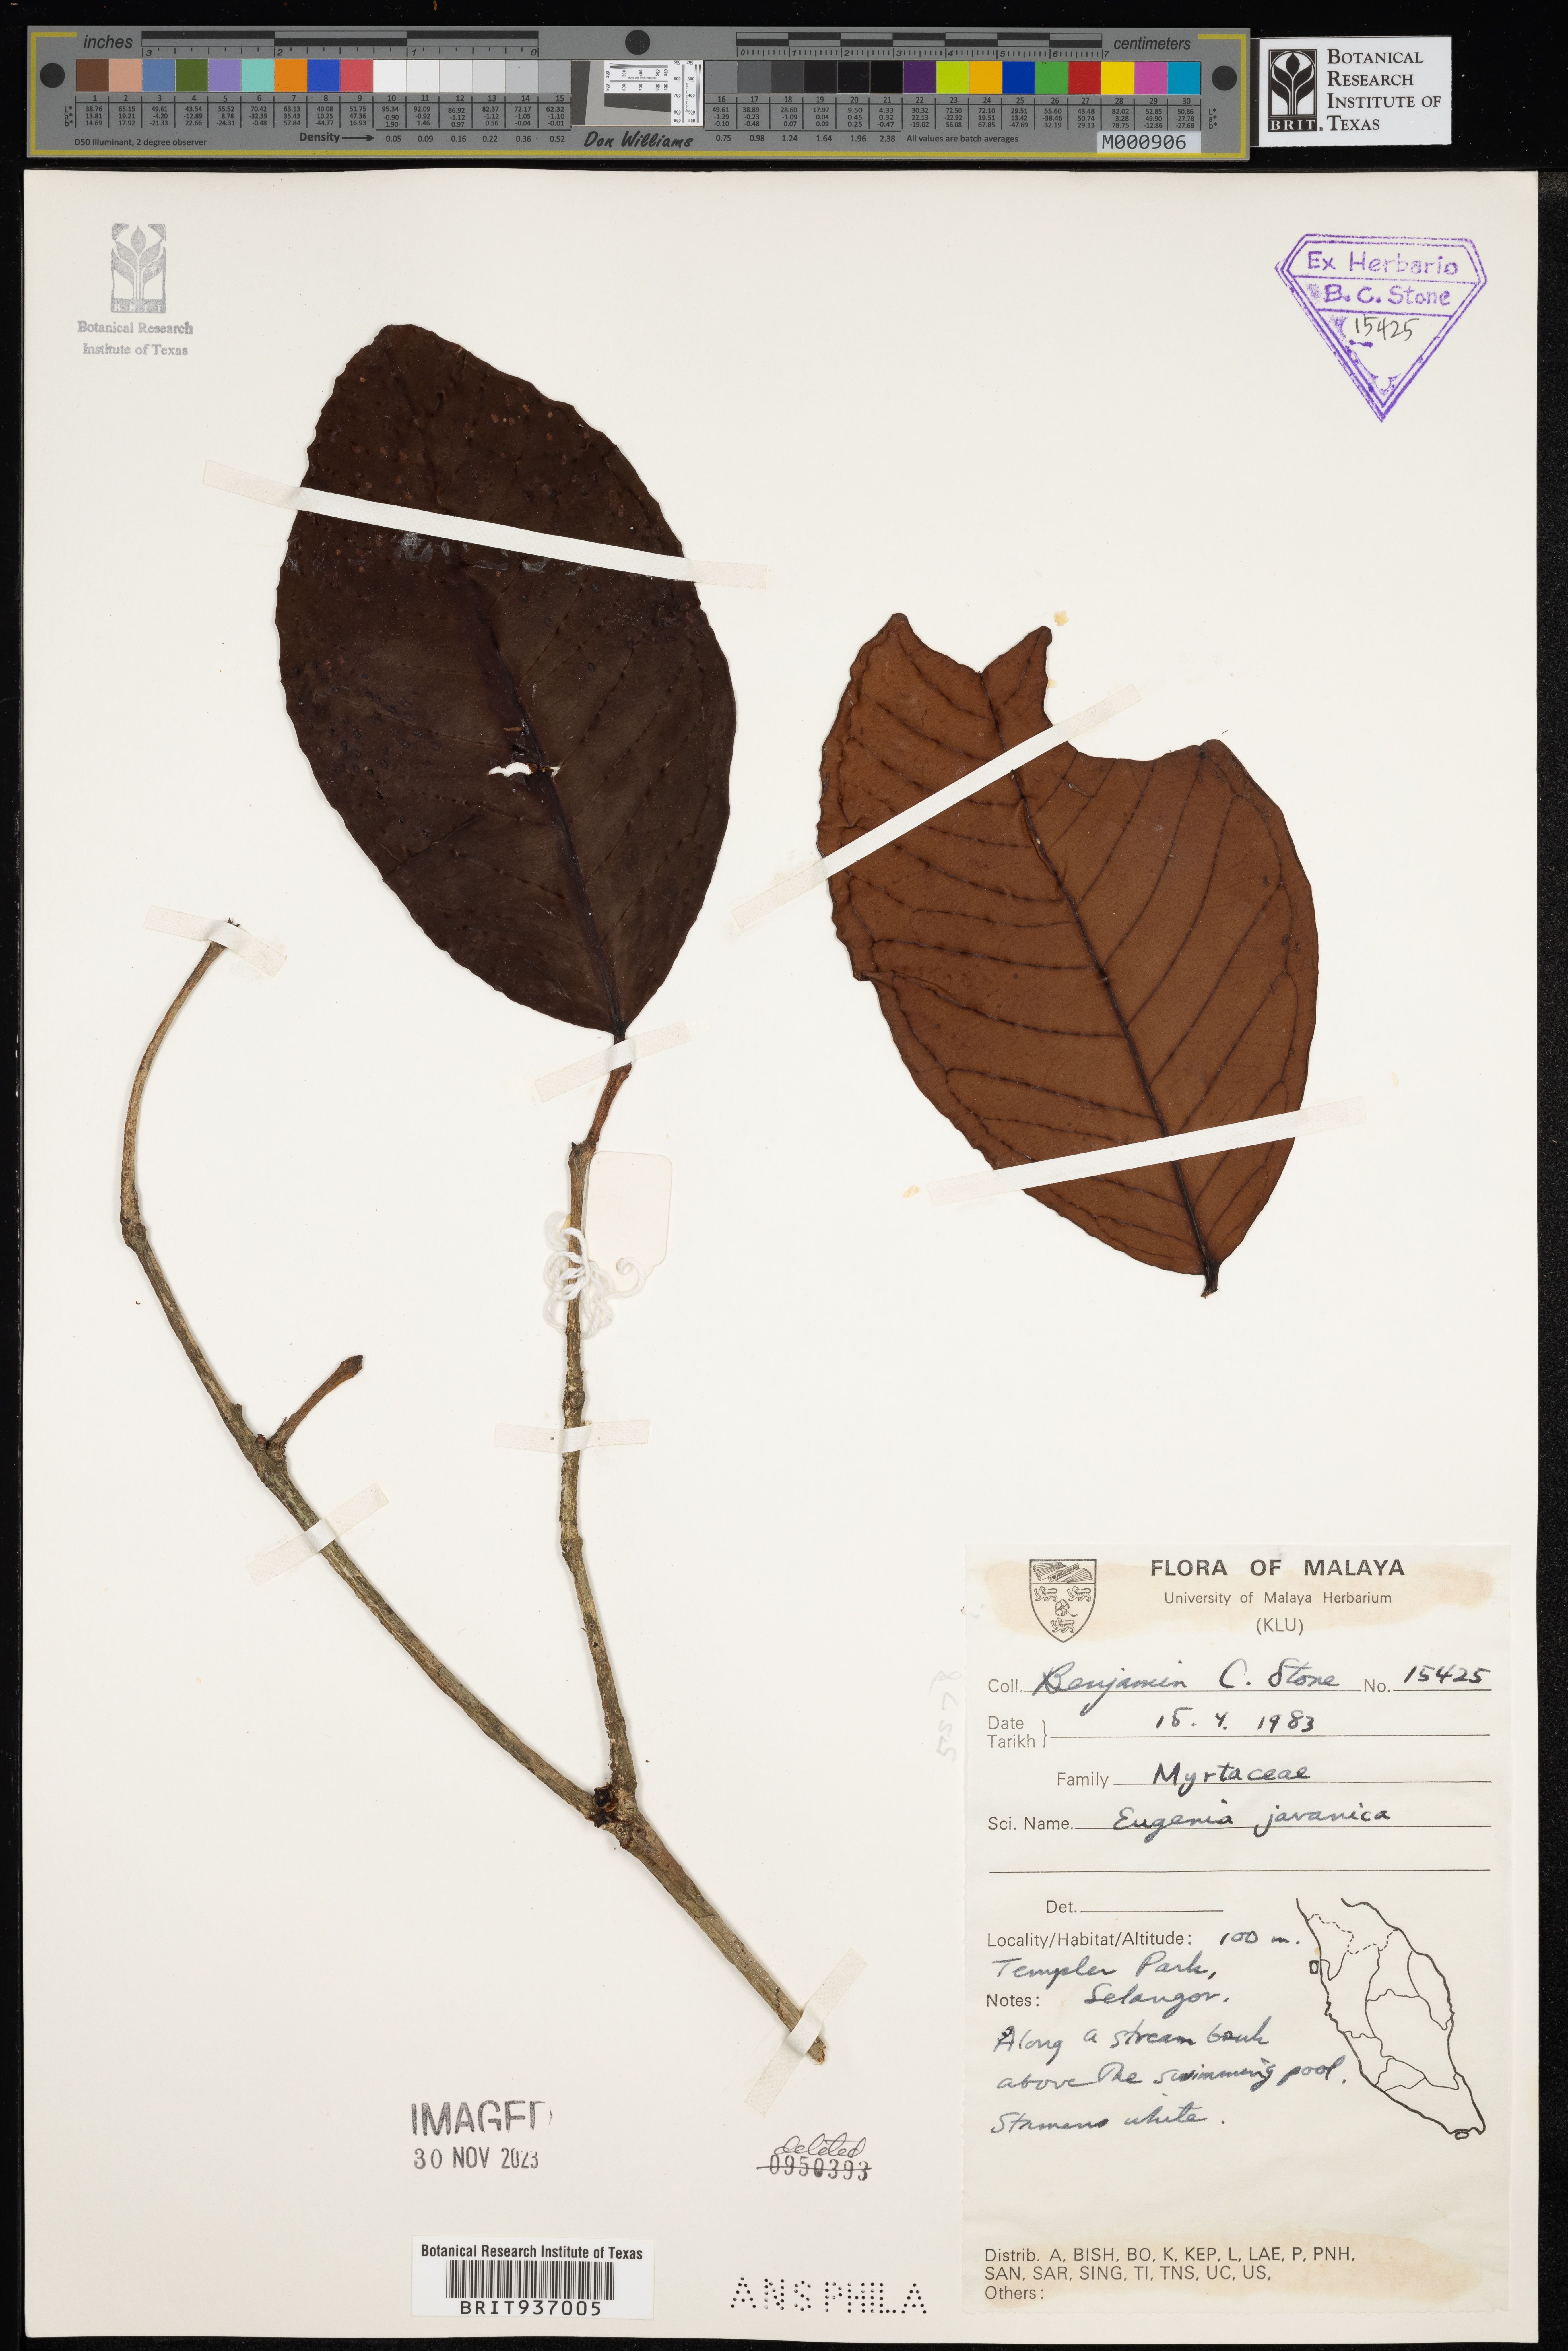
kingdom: Plantae
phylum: Tracheophyta
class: Magnoliopsida
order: Myrtales
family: Myrtaceae
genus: Eugenia
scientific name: Eugenia
